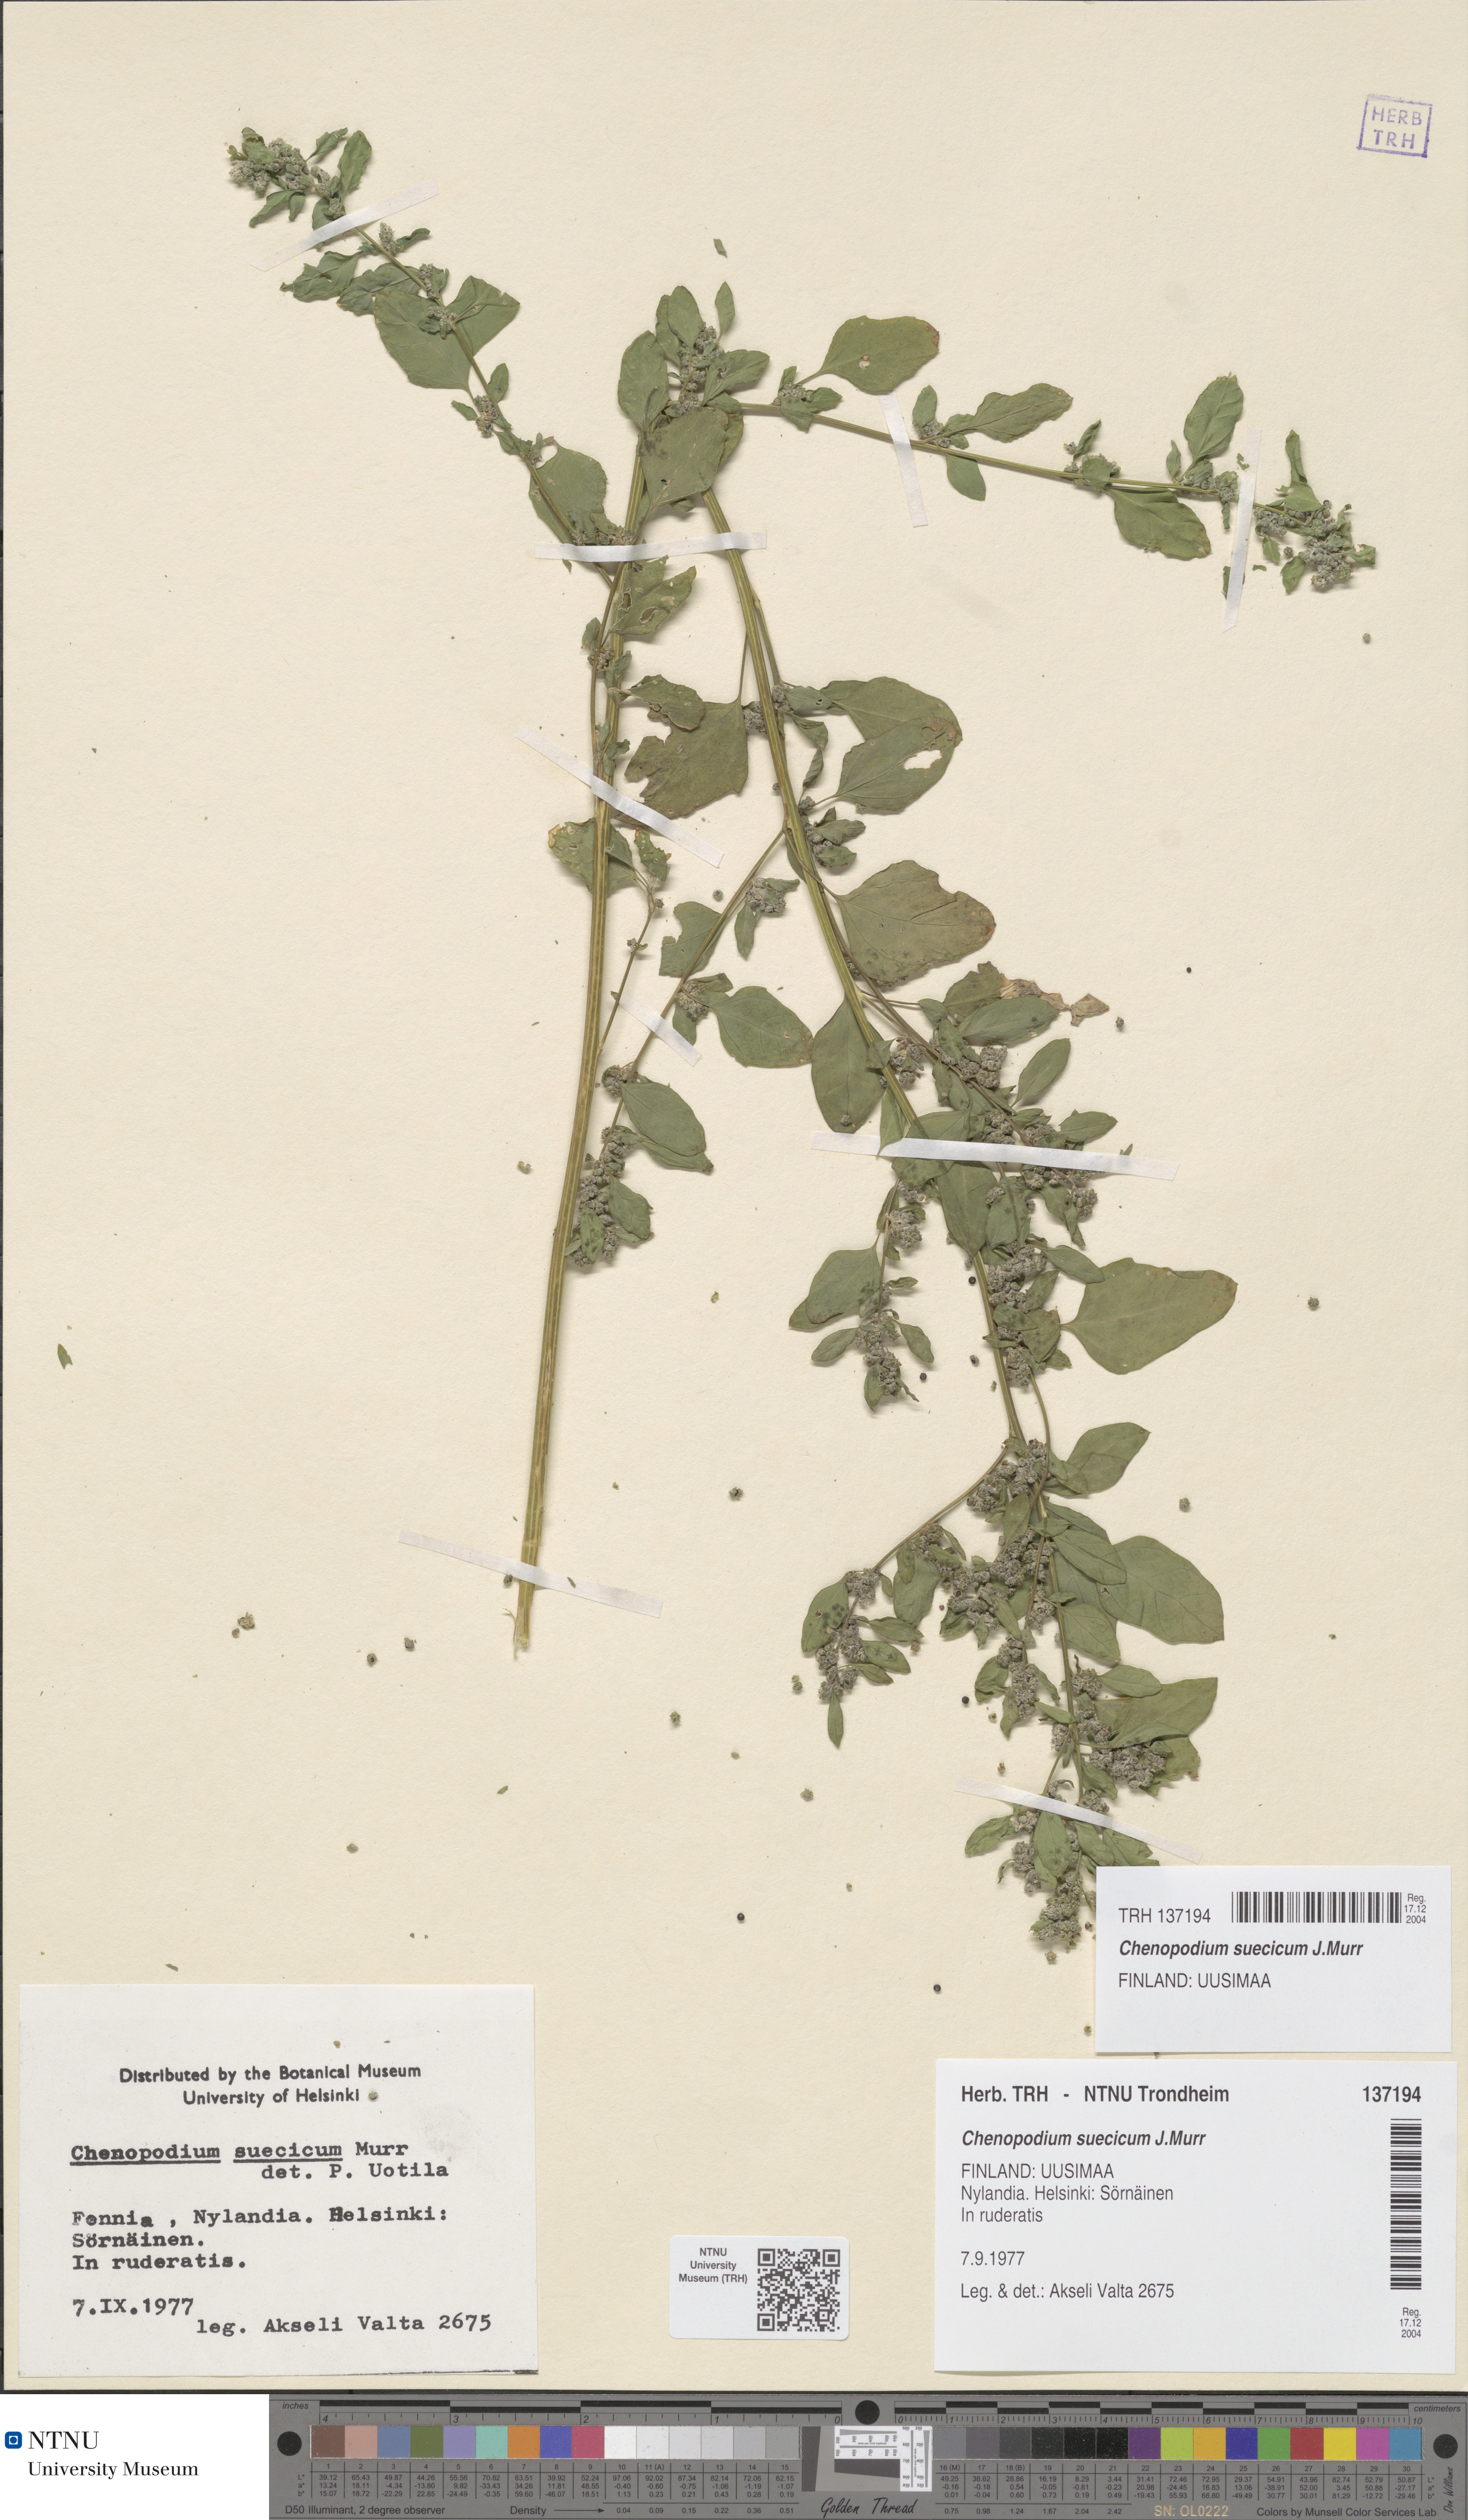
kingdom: Plantae
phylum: Tracheophyta
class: Magnoliopsida
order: Caryophyllales
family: Amaranthaceae
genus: Chenopodium
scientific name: Chenopodium suecicum
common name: Swedish goosefoot
